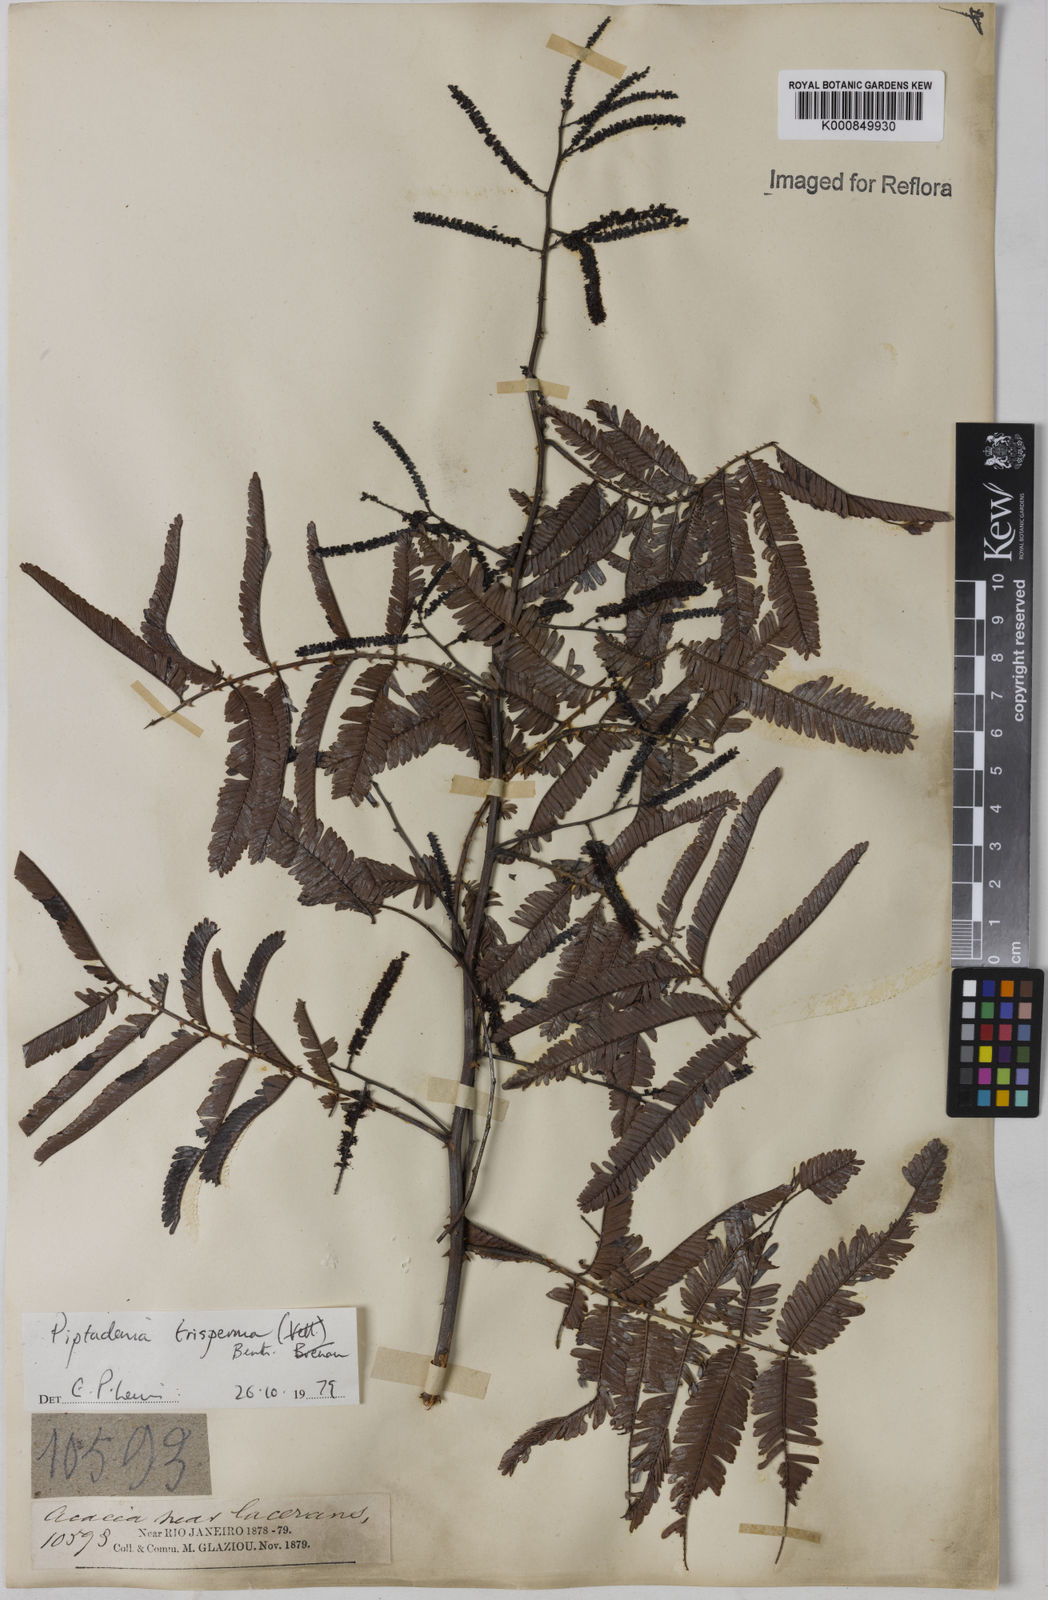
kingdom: Plantae
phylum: Tracheophyta
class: Magnoliopsida
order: Fabales
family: Fabaceae
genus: Piptadenia
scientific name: Piptadenia trisperma
